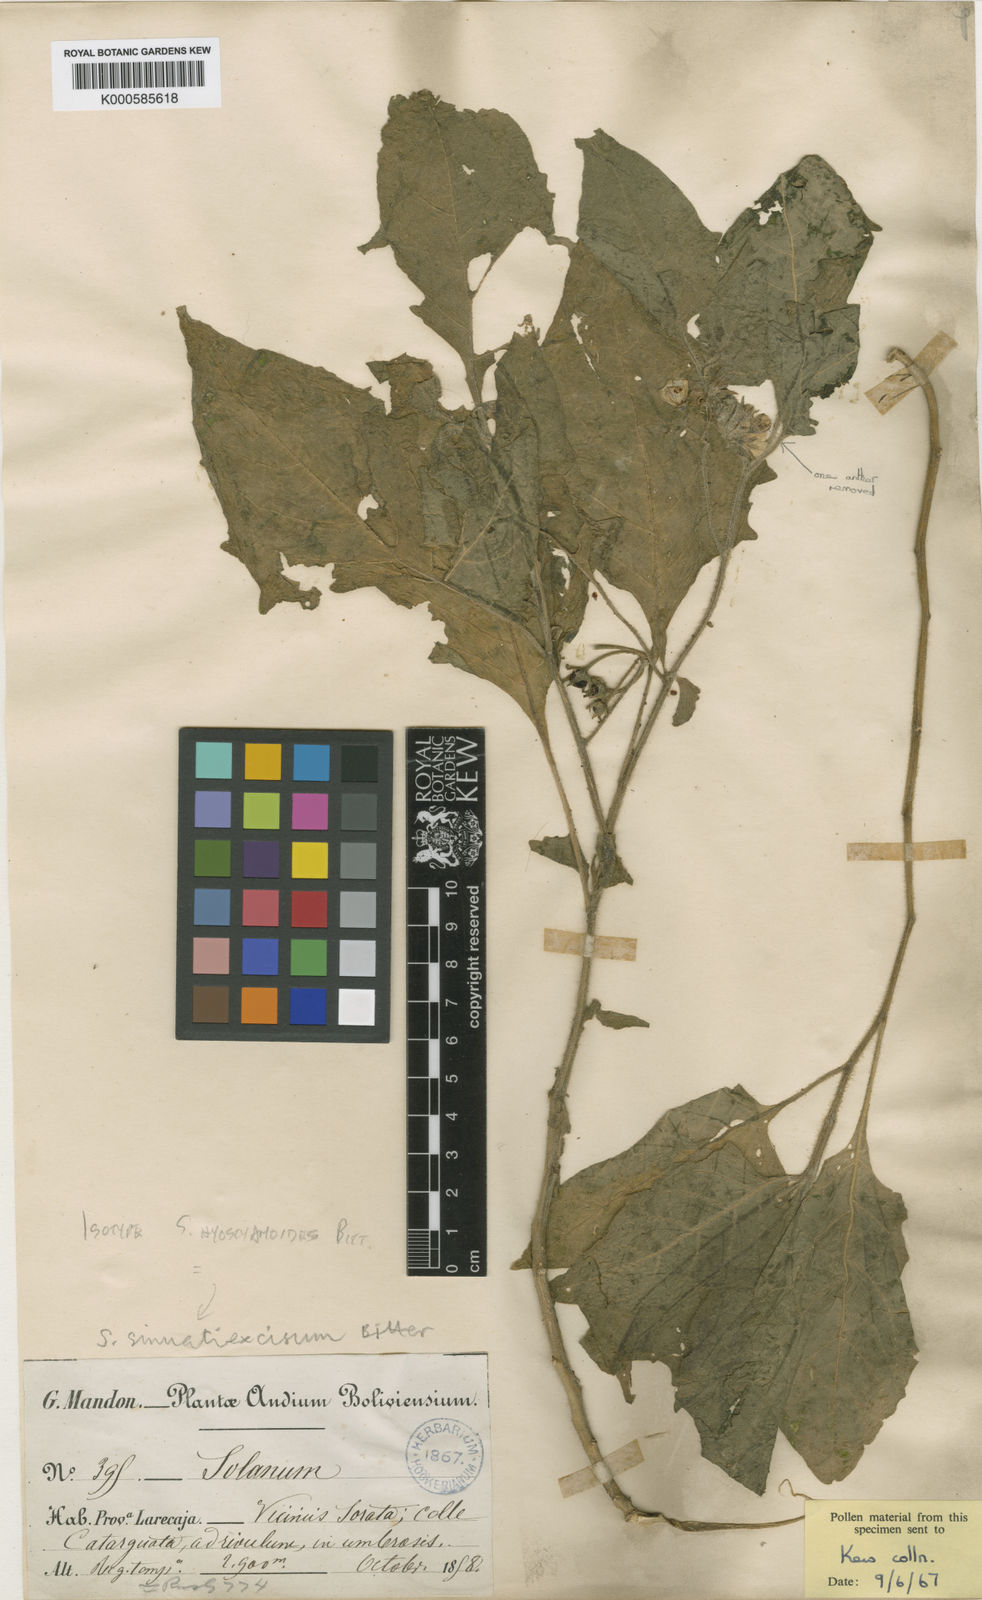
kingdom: Plantae
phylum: Tracheophyta
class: Magnoliopsida
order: Solanales
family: Solanaceae
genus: Solanum
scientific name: Solanum sinuatiexcisum
